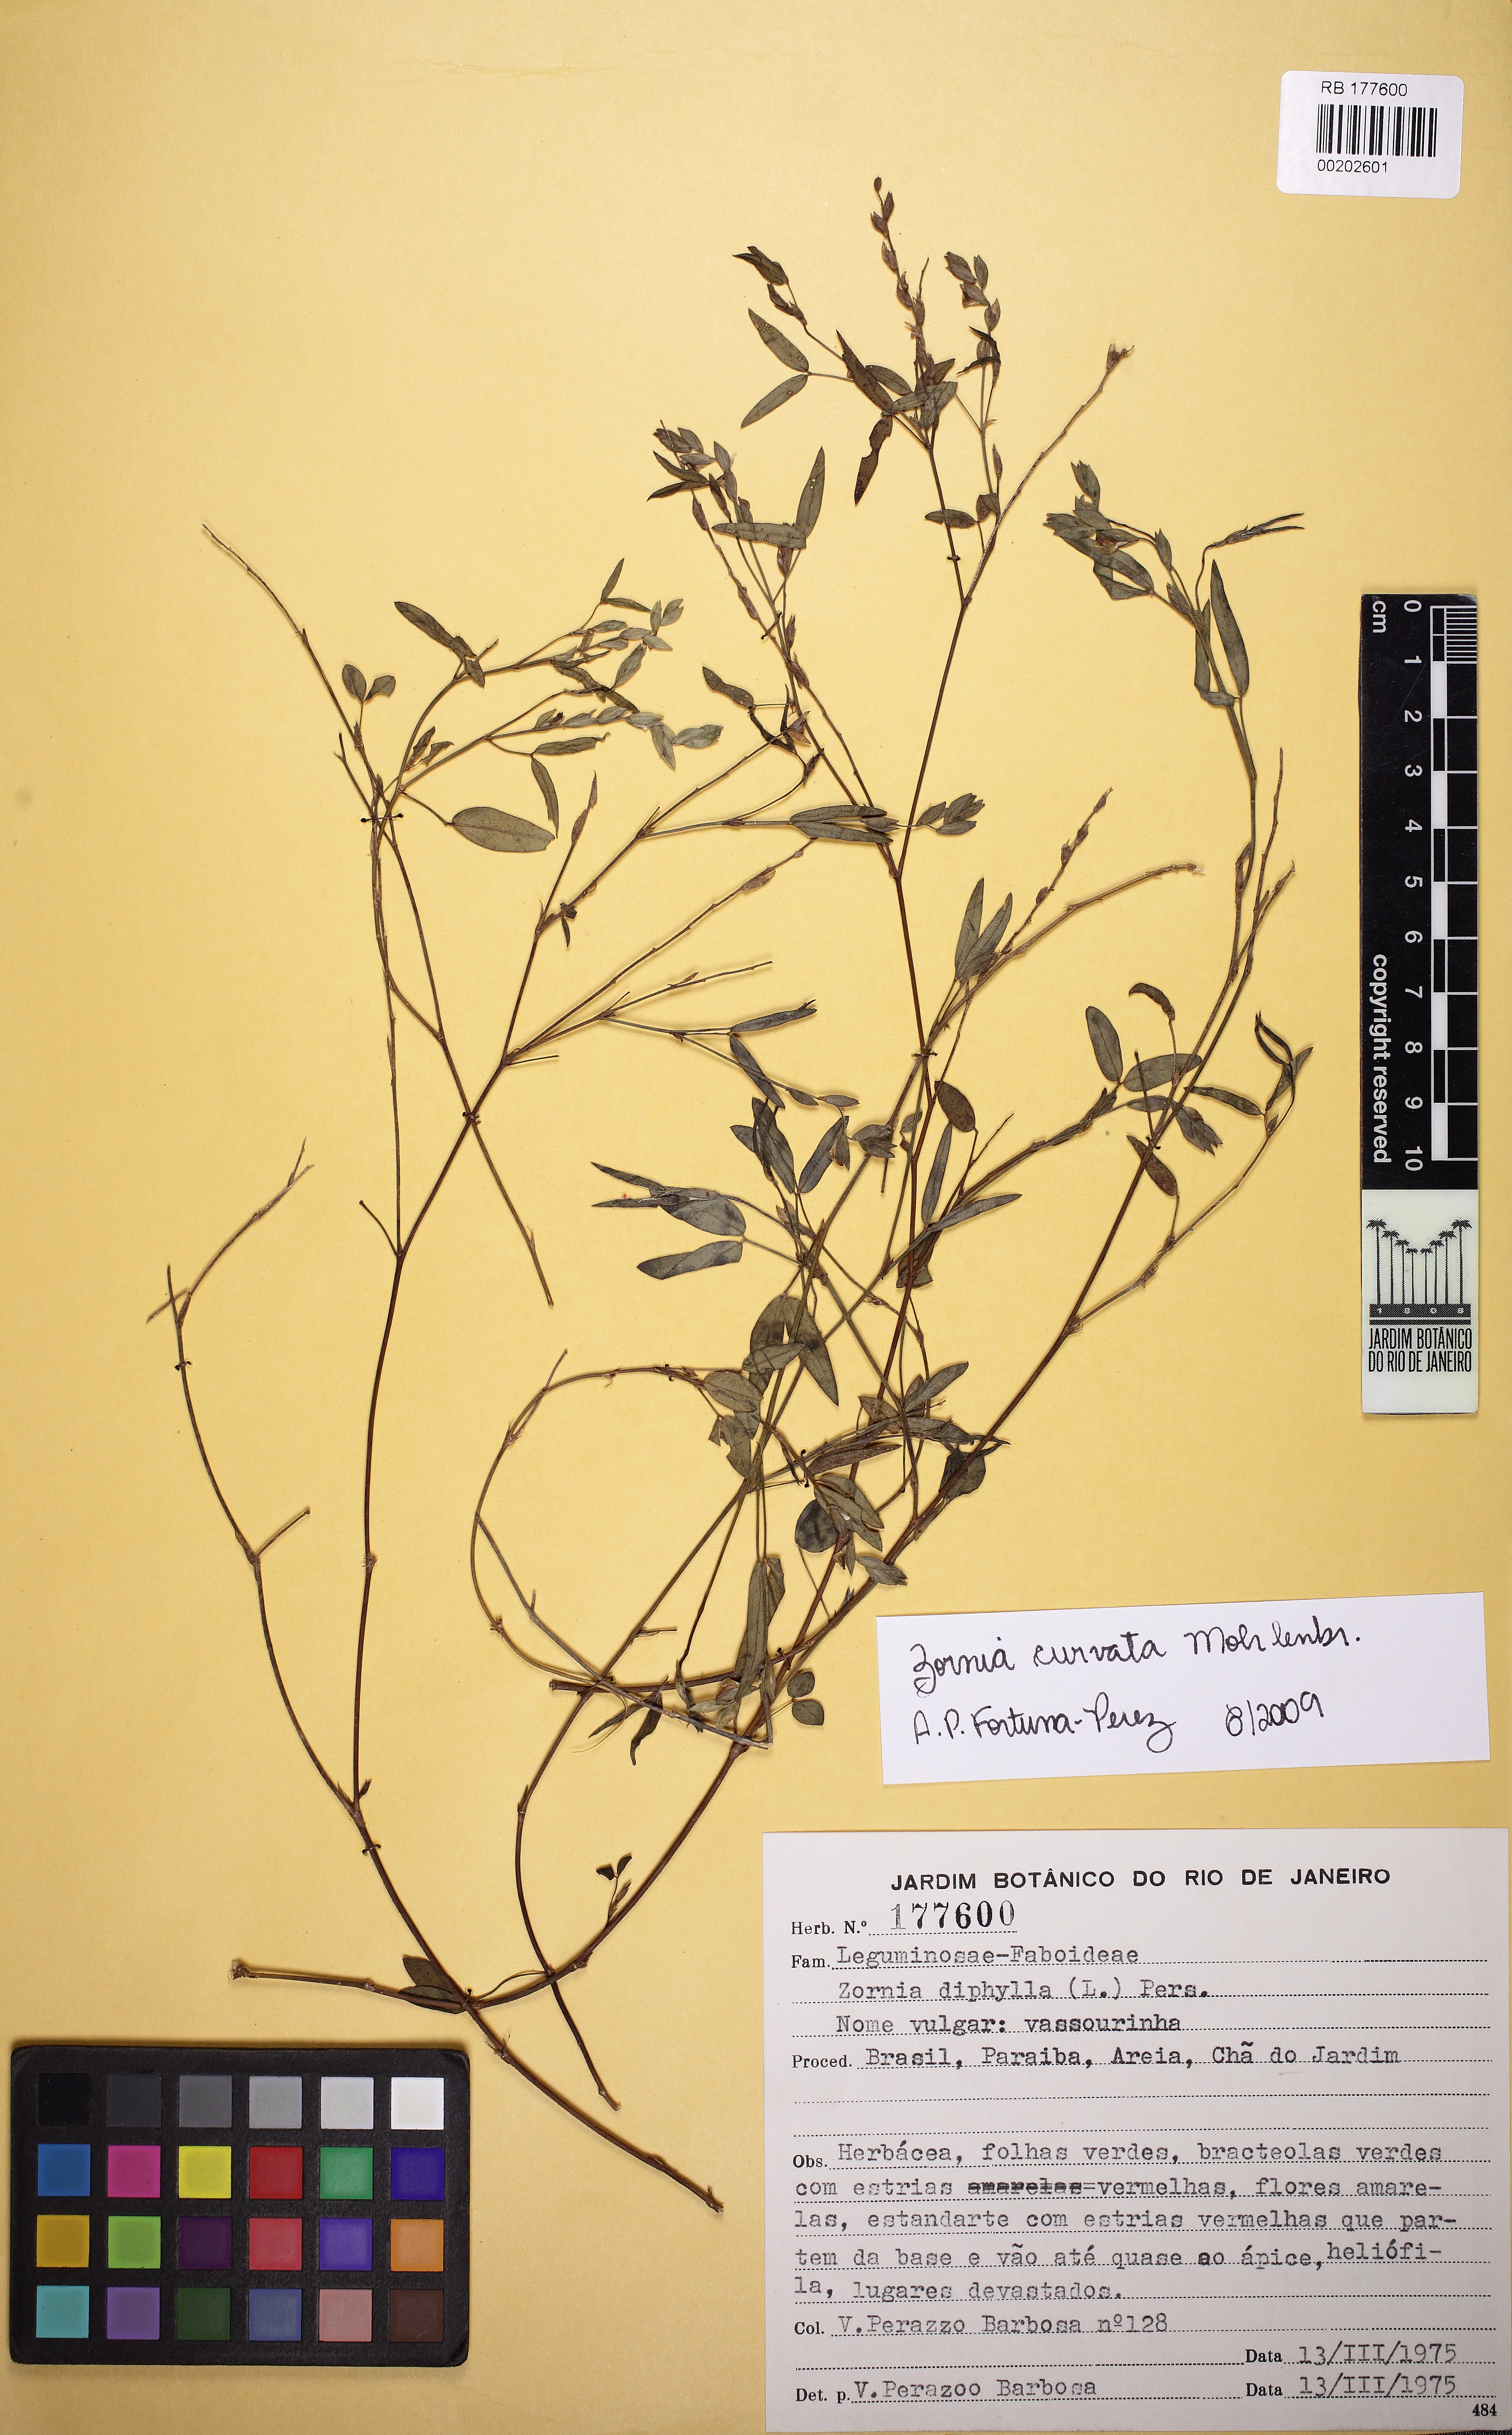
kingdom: Plantae
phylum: Tracheophyta
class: Magnoliopsida
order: Fabales
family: Fabaceae
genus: Zornia
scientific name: Zornia curvata
